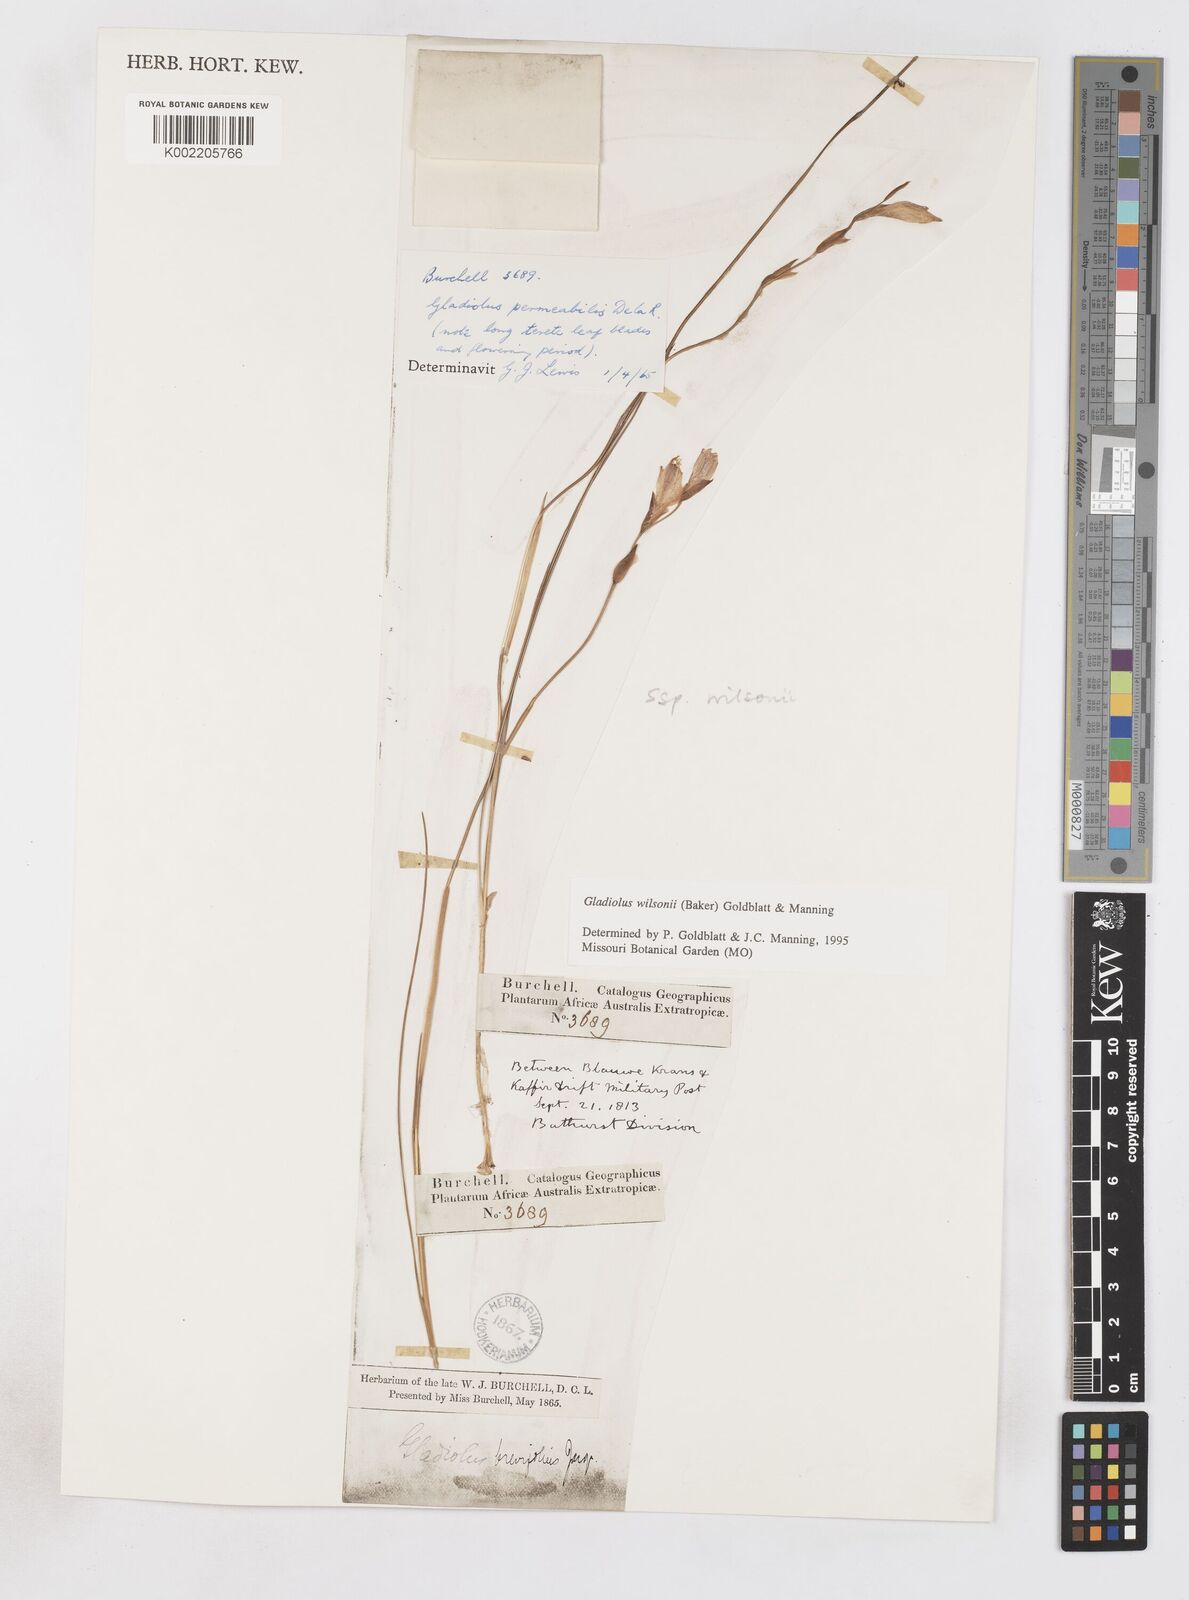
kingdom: Plantae
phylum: Tracheophyta
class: Liliopsida
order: Asparagales
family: Iridaceae
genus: Gladiolus
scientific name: Gladiolus wilsonii
